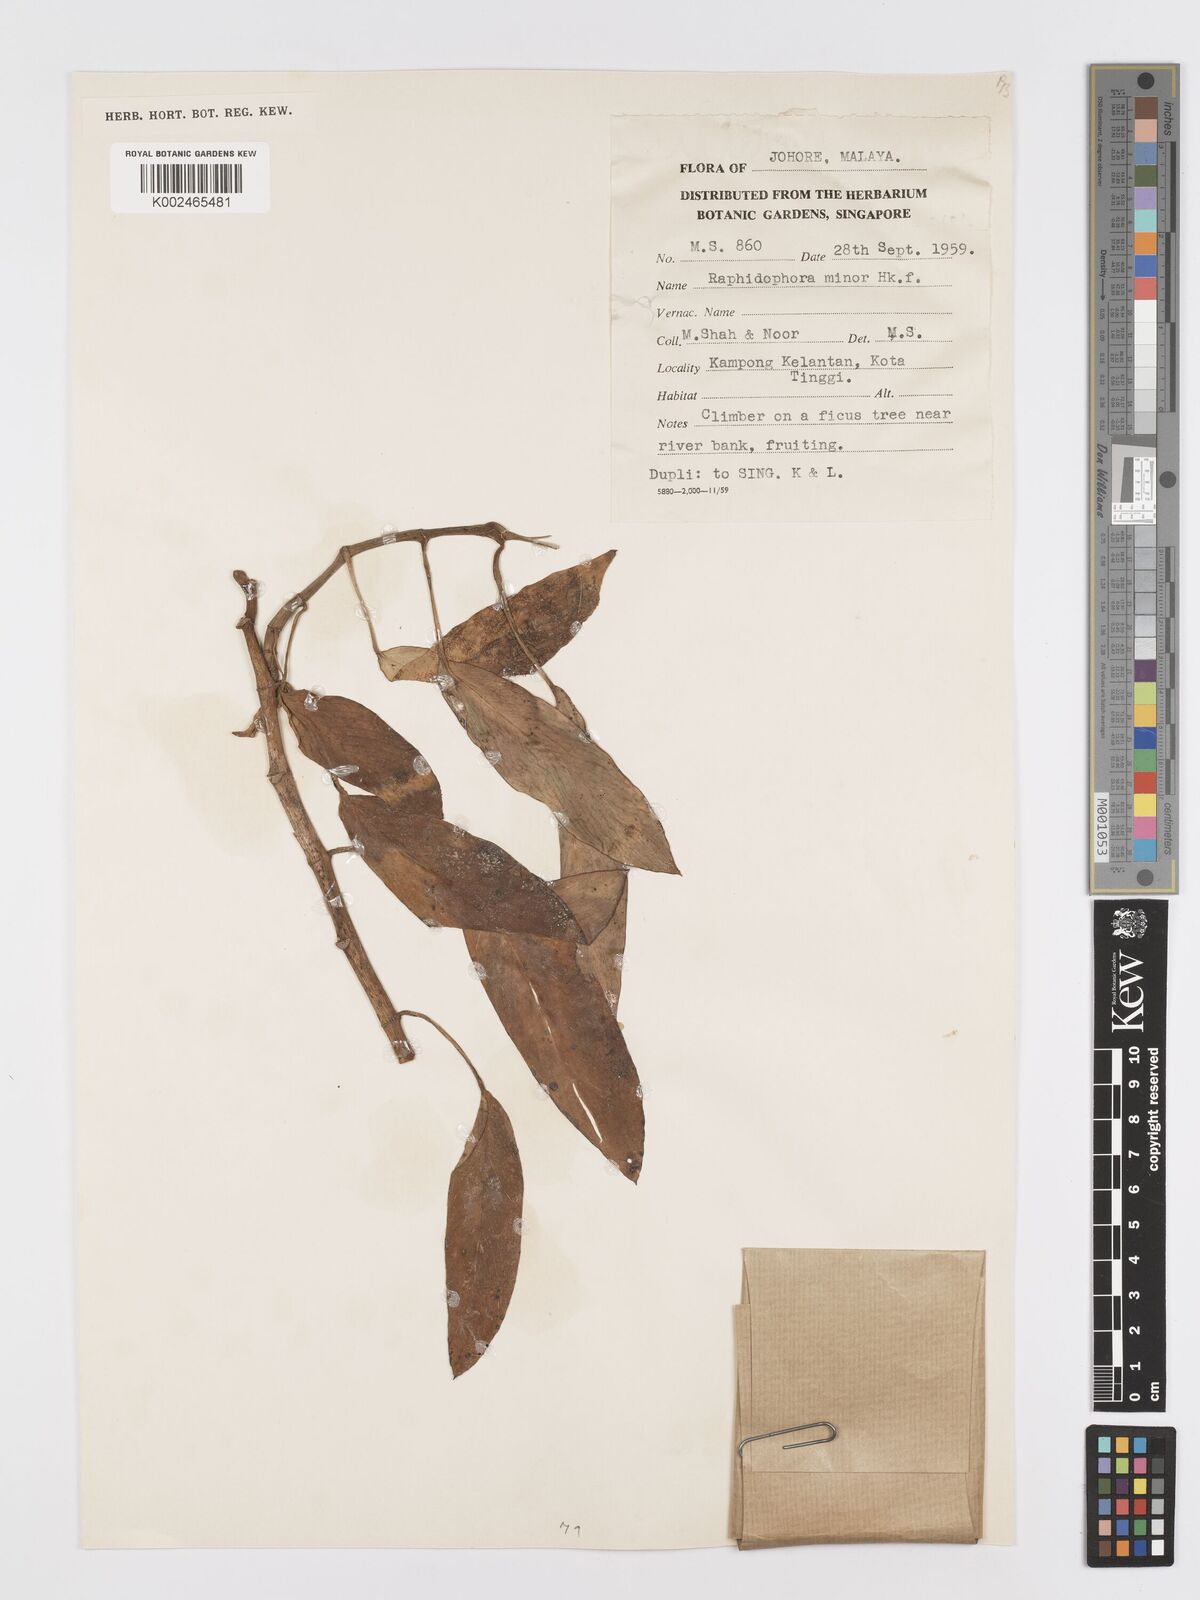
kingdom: Plantae
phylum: Tracheophyta
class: Liliopsida
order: Alismatales
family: Araceae
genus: Rhaphidophora
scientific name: Rhaphidophora minor
